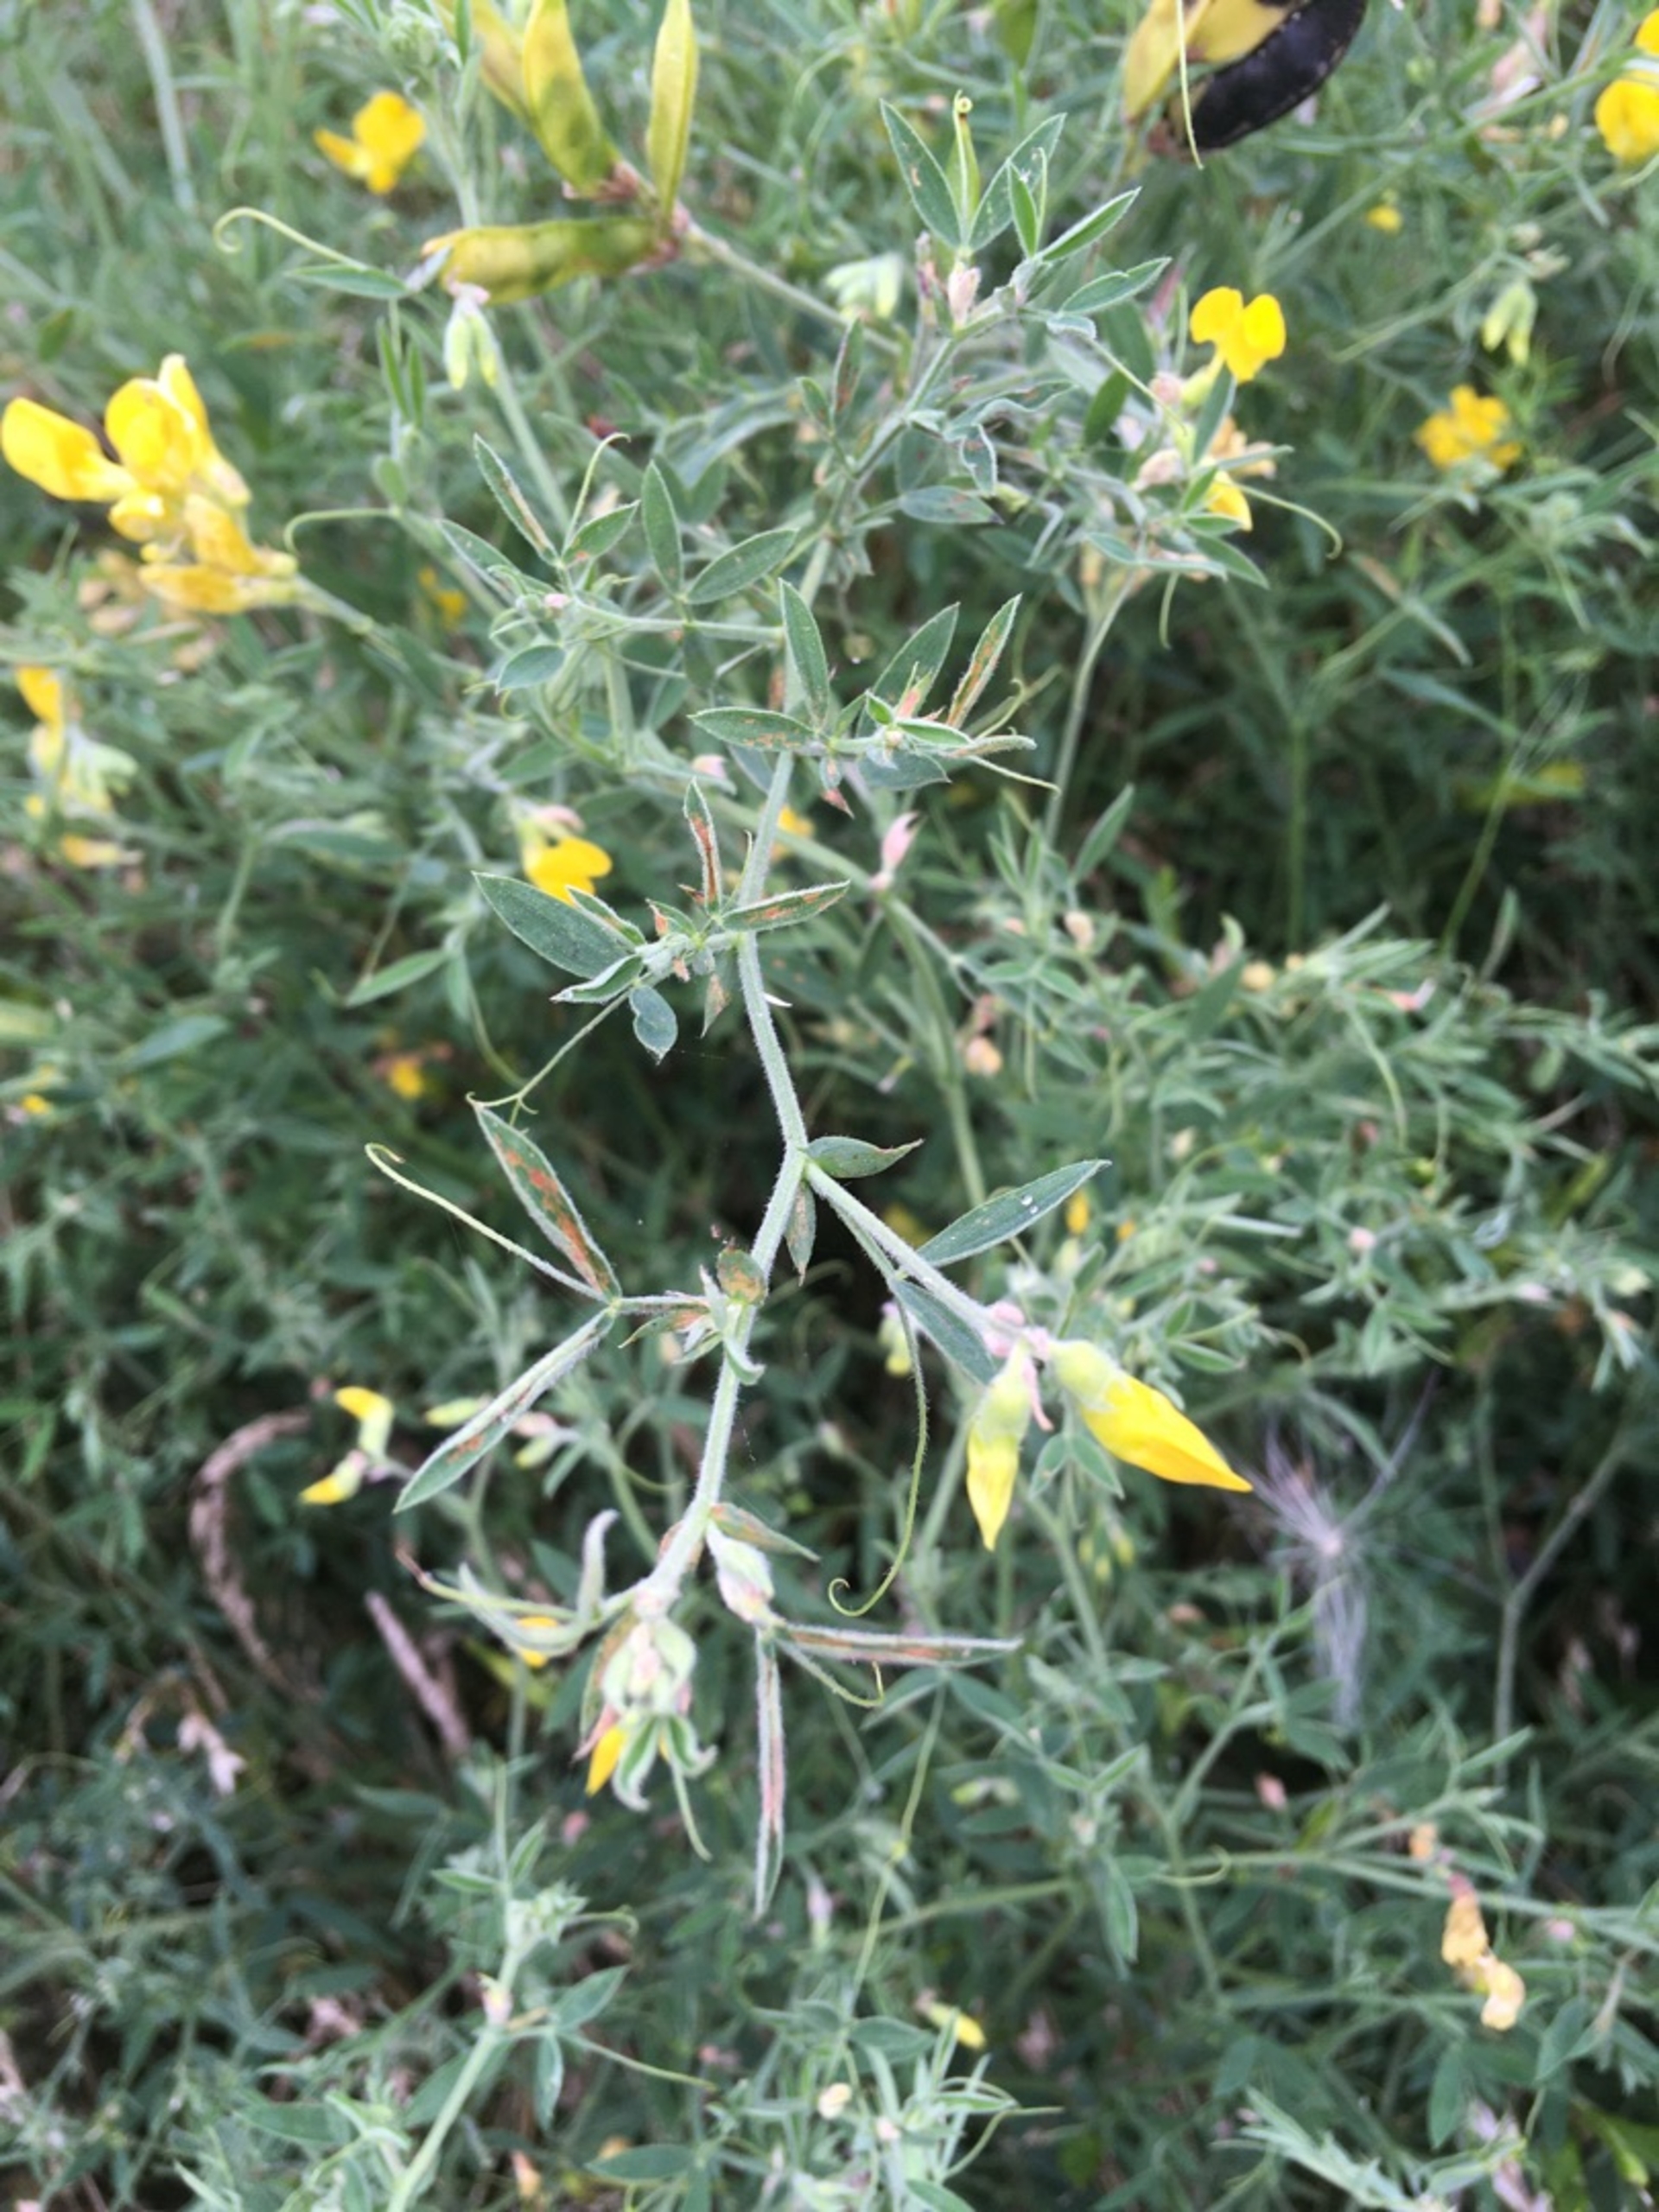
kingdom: Plantae
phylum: Tracheophyta
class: Magnoliopsida
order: Fabales
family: Fabaceae
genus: Lathyrus
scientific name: Lathyrus pratensis
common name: Gul fladbælg
